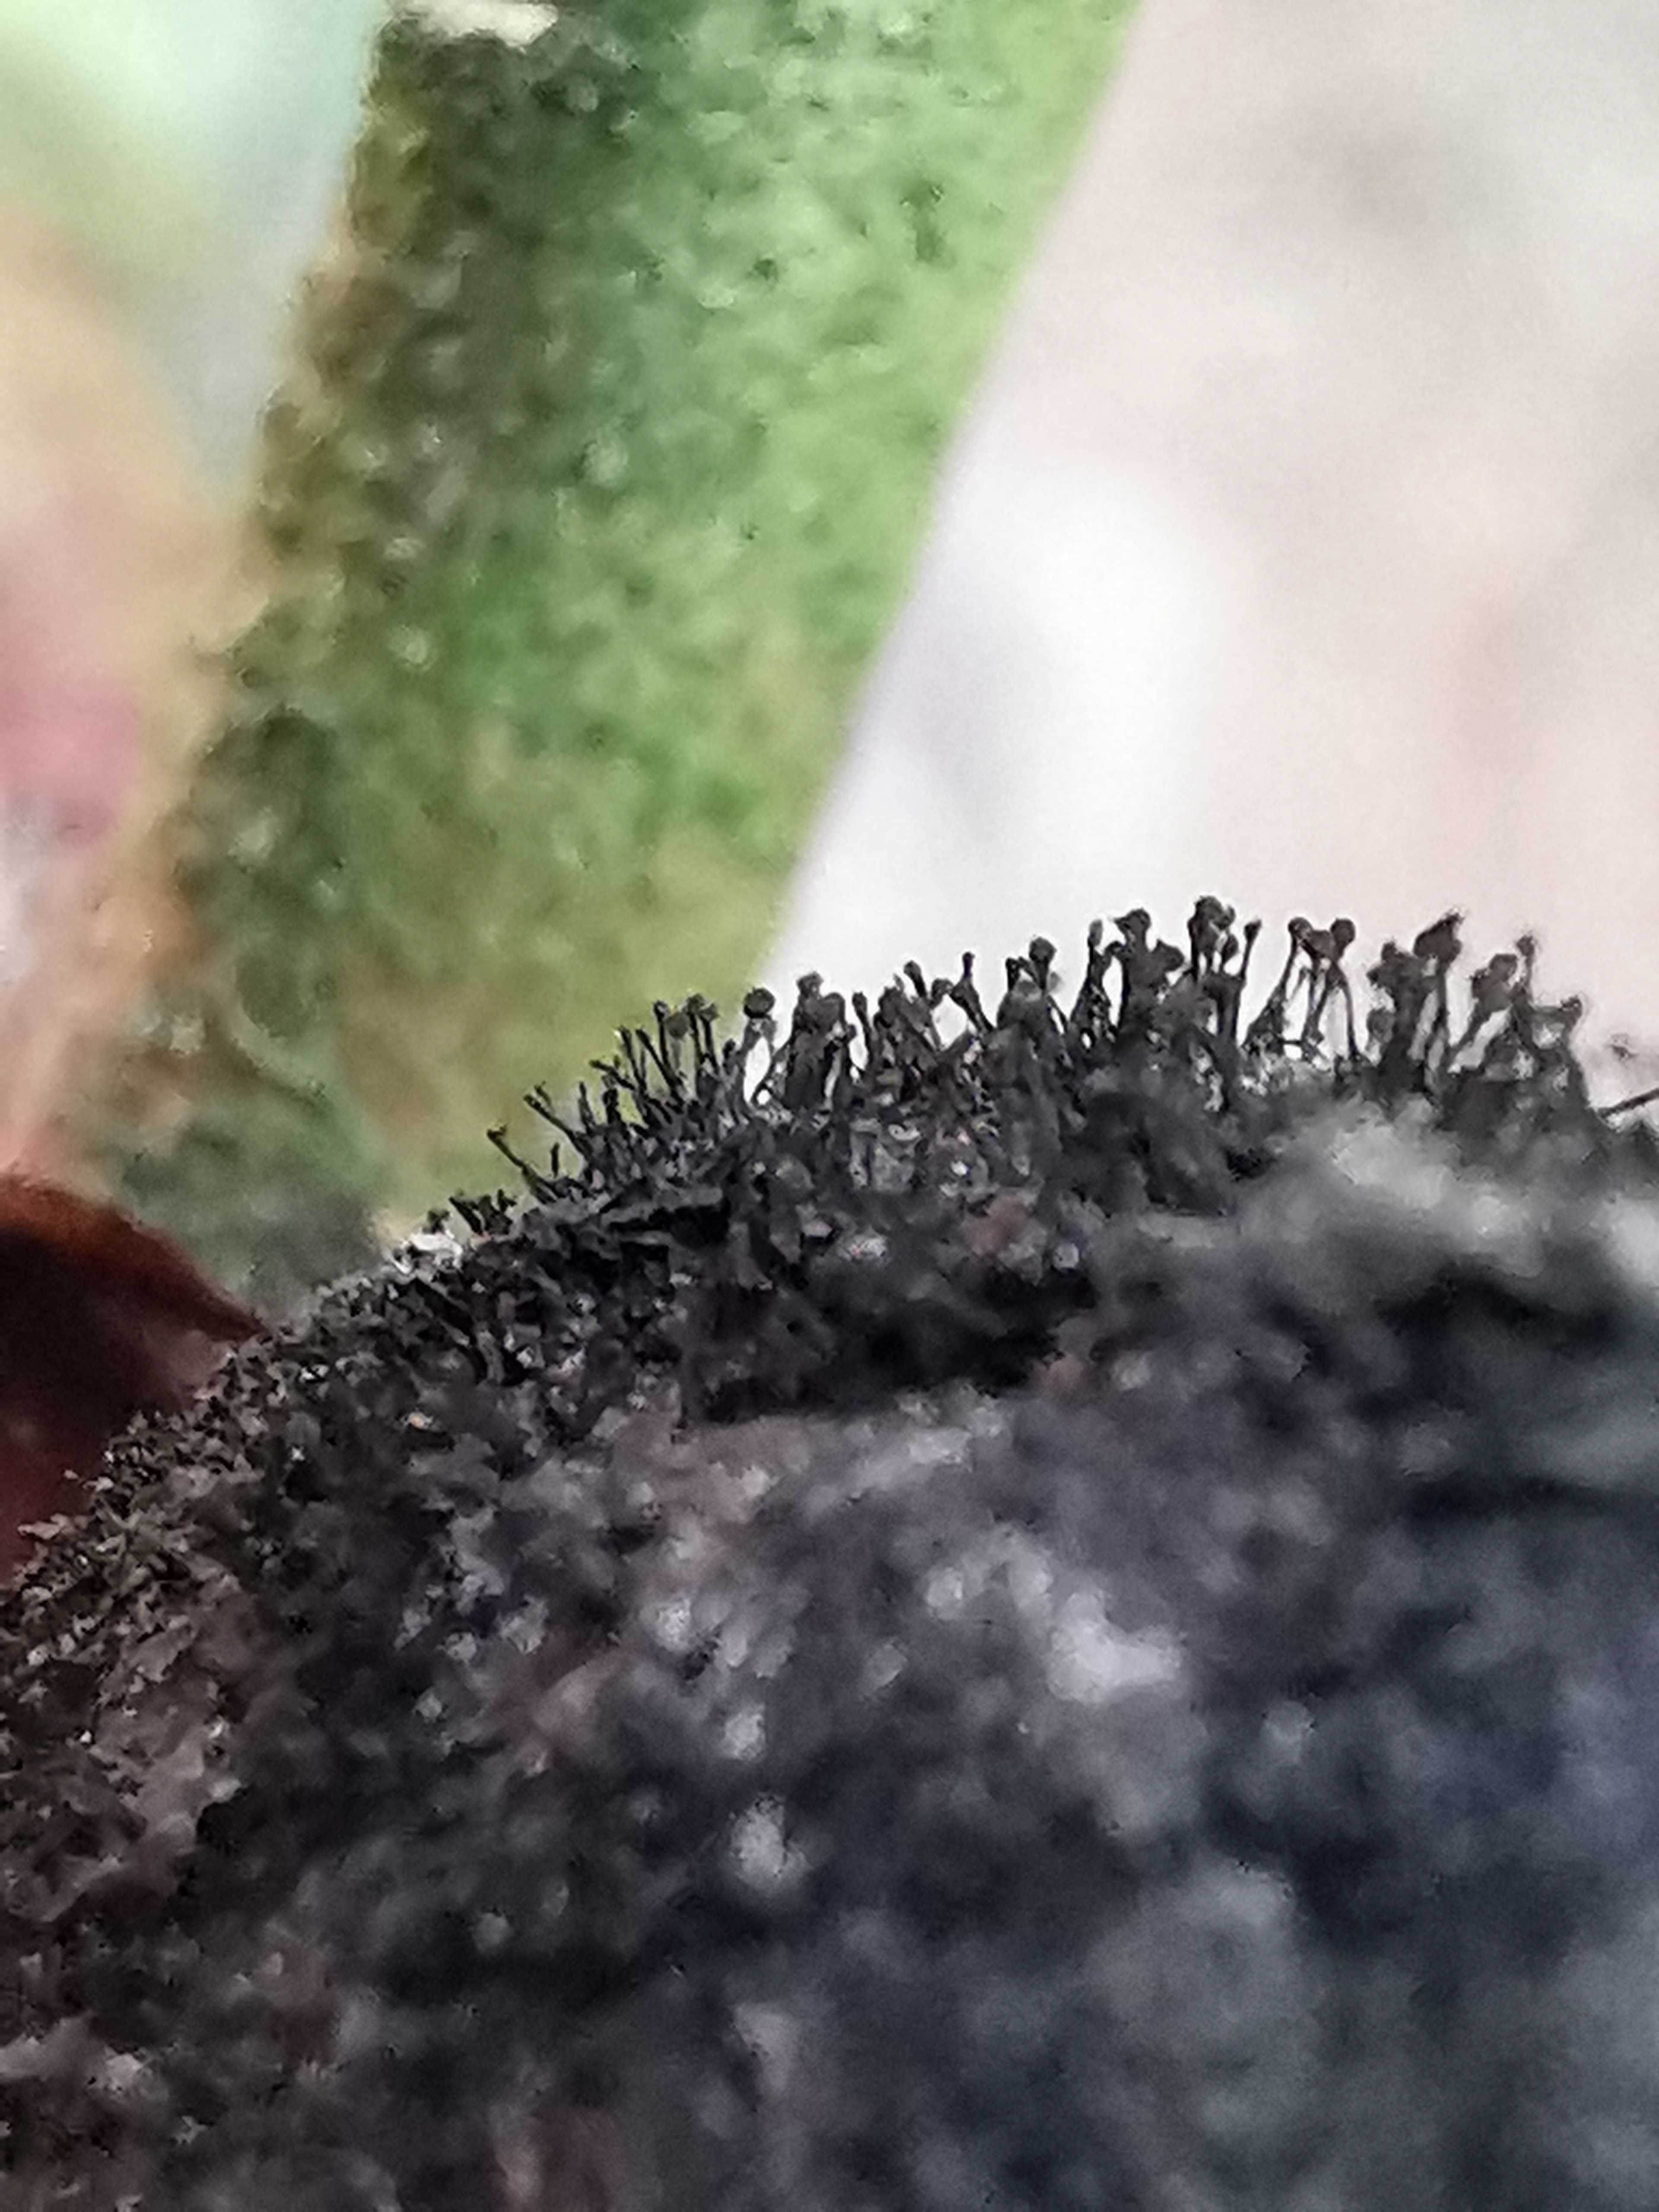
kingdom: Fungi
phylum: Ascomycota
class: Dothideomycetes
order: Pleosporales
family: Melanommataceae
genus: Seifertia
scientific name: Seifertia azaleae
